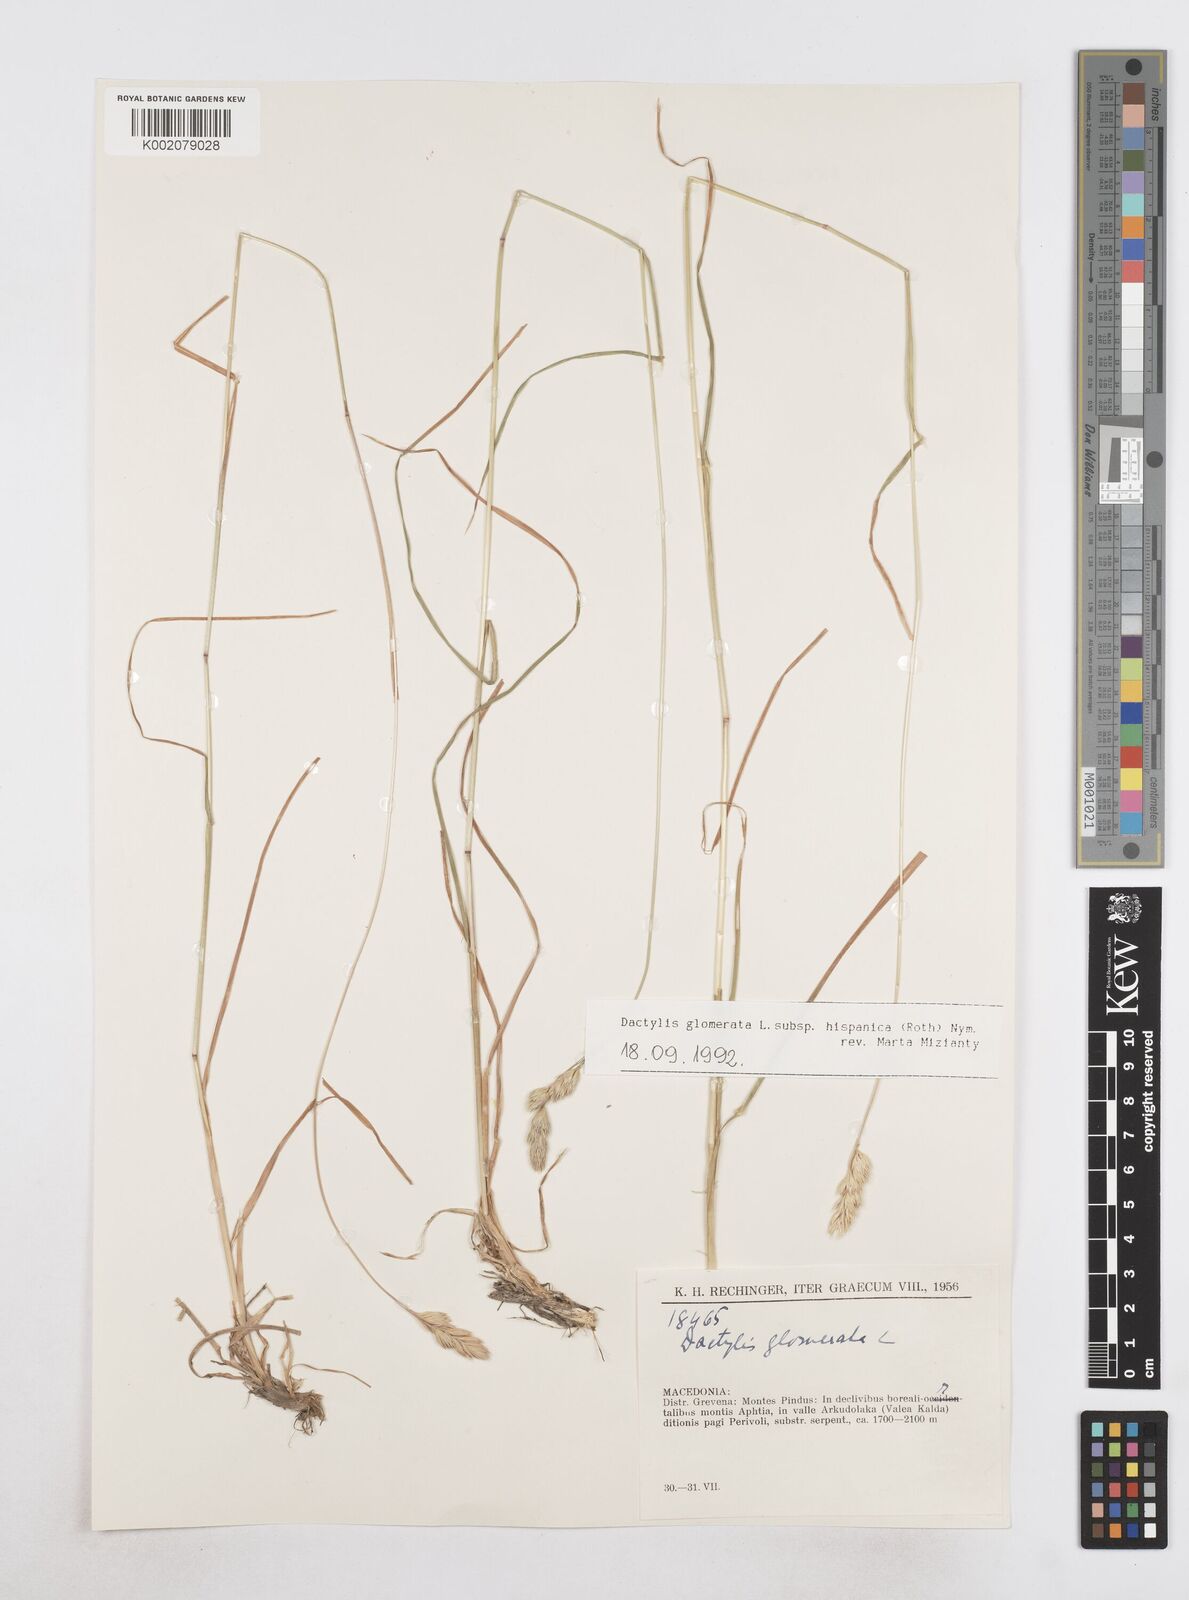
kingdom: Plantae
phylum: Tracheophyta
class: Liliopsida
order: Poales
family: Poaceae
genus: Dactylis
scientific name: Dactylis glomerata
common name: Orchardgrass
